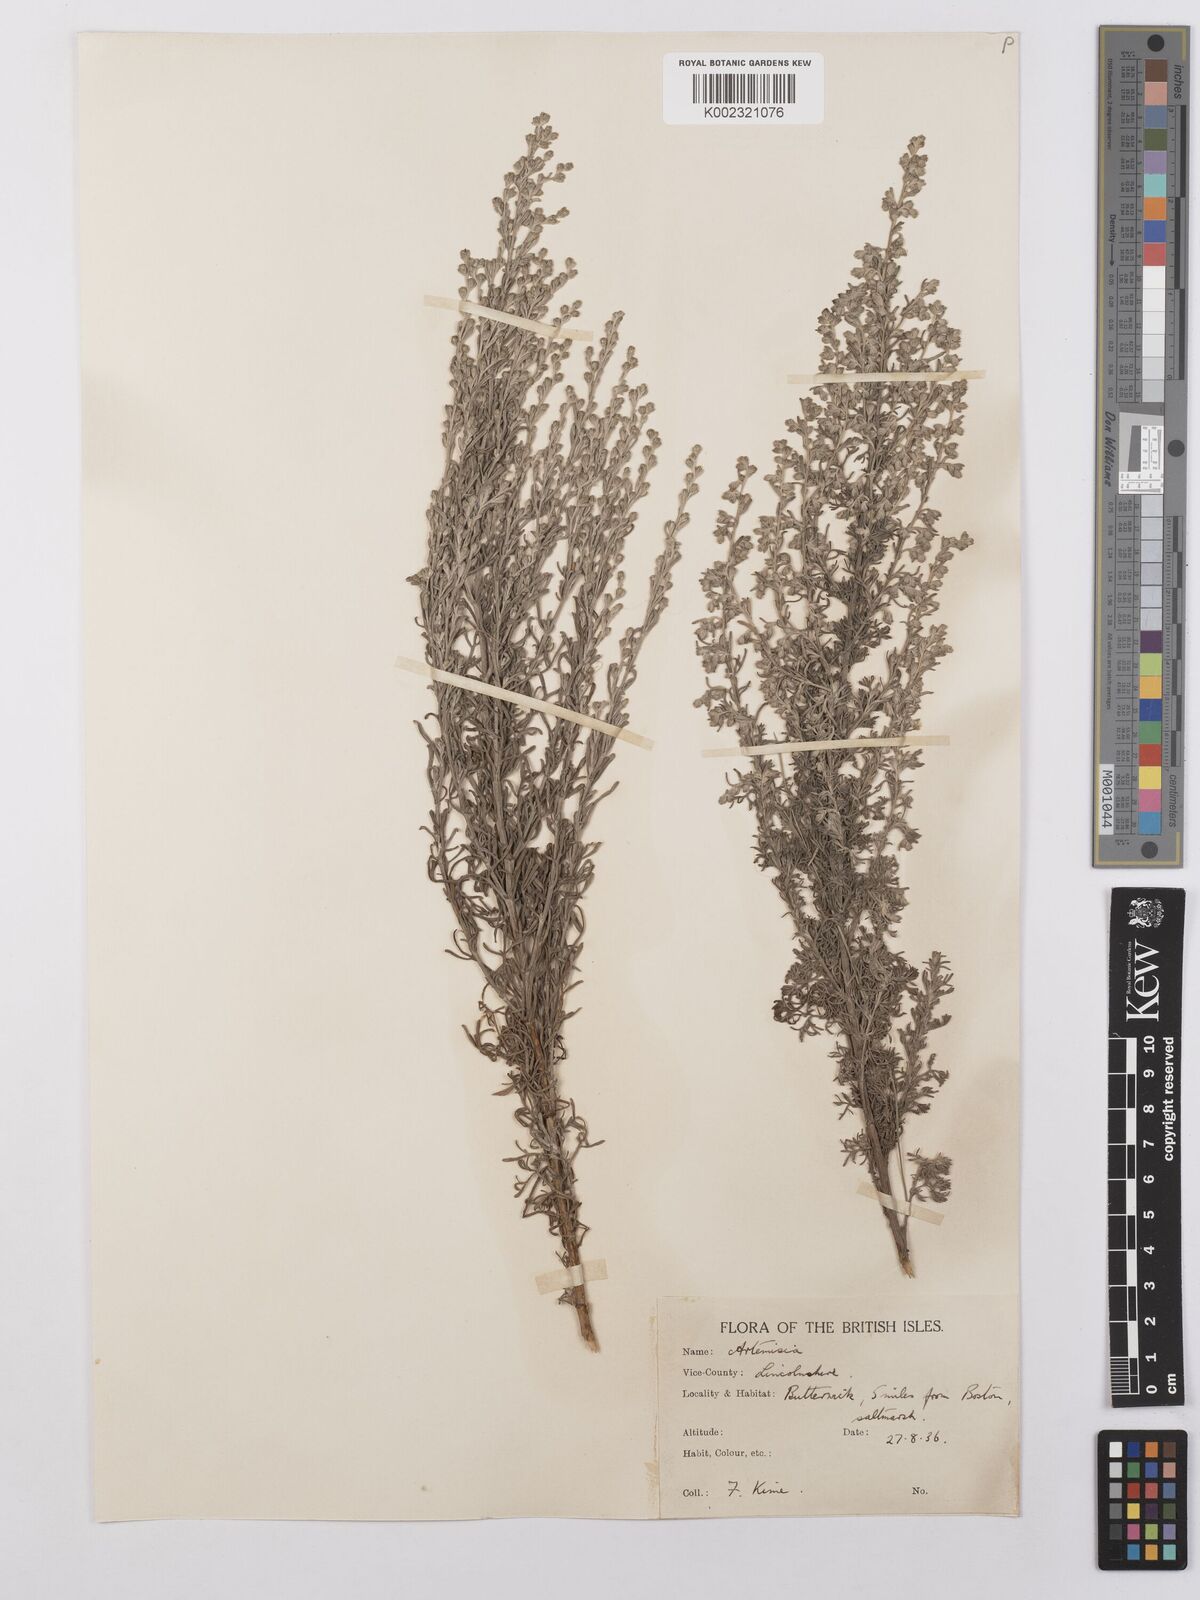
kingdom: Plantae
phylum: Tracheophyta
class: Magnoliopsida
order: Asterales
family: Asteraceae
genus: Artemisia
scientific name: Artemisia maritima
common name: Wormseed
